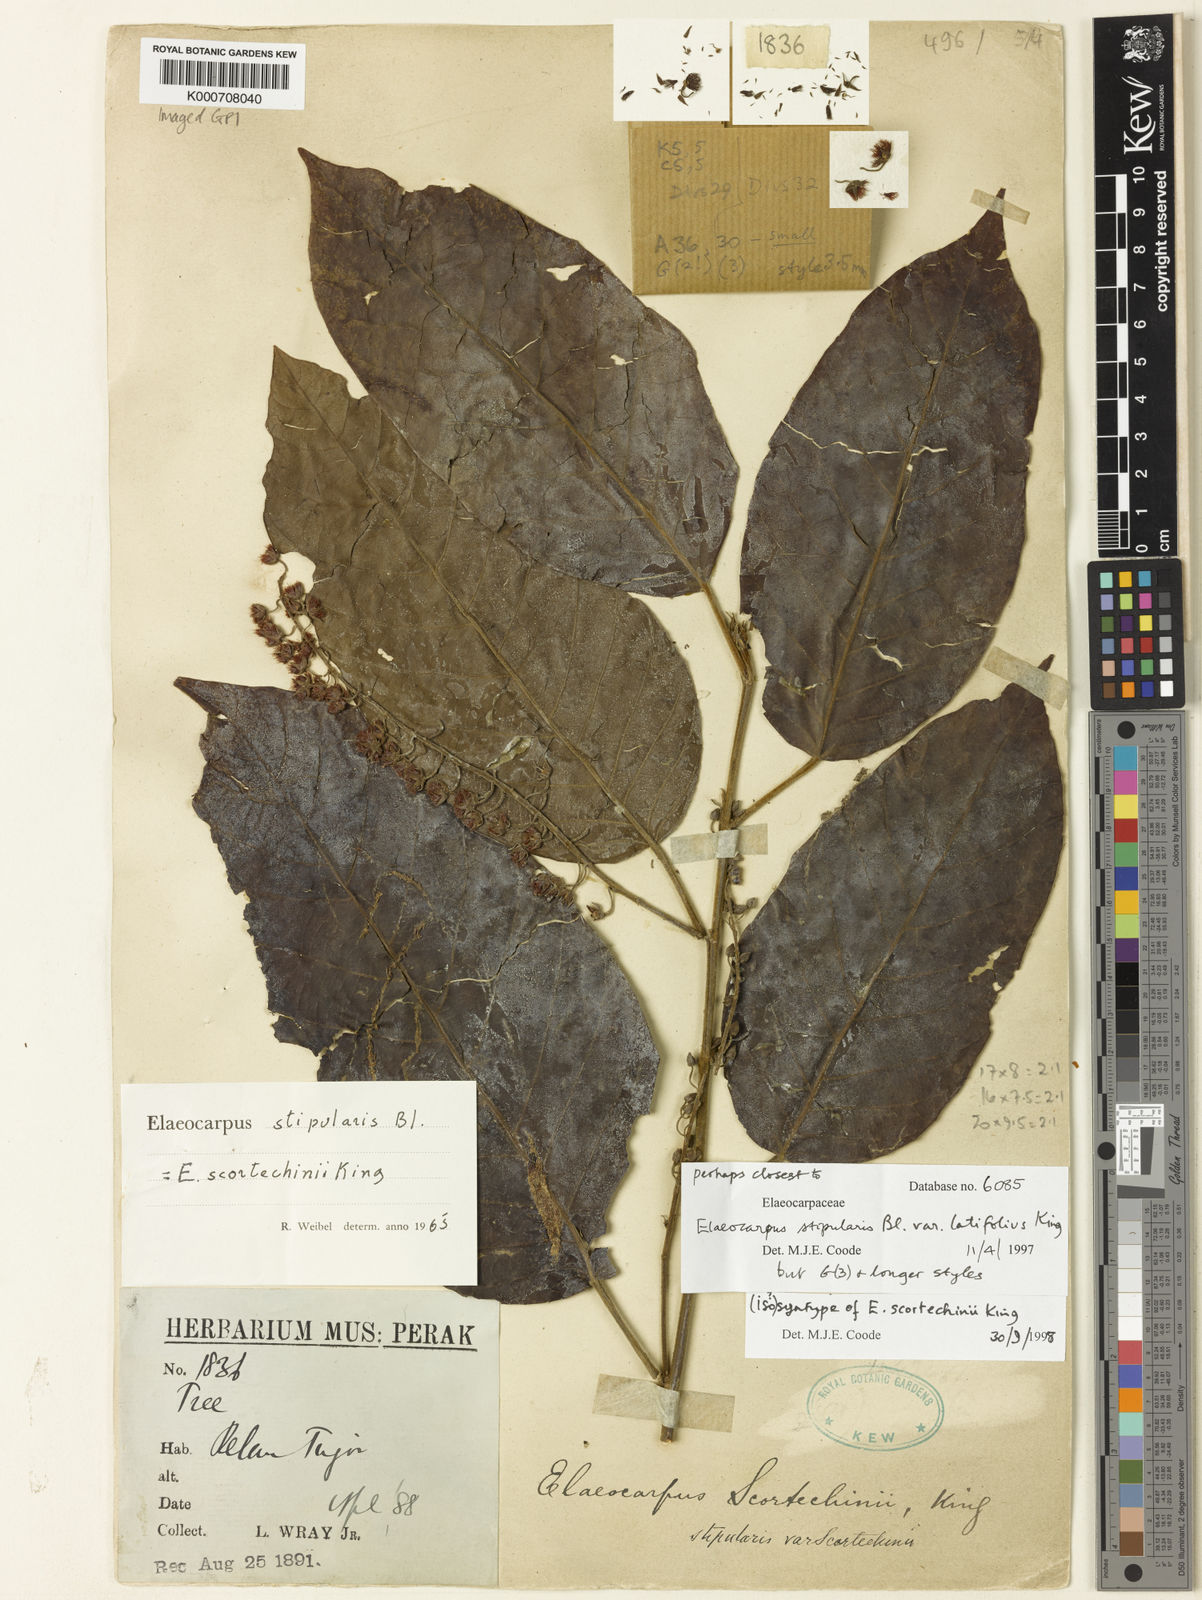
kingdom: Plantae
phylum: Tracheophyta
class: Magnoliopsida
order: Oxalidales
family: Elaeocarpaceae
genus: Elaeocarpus
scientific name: Elaeocarpus stipularis
